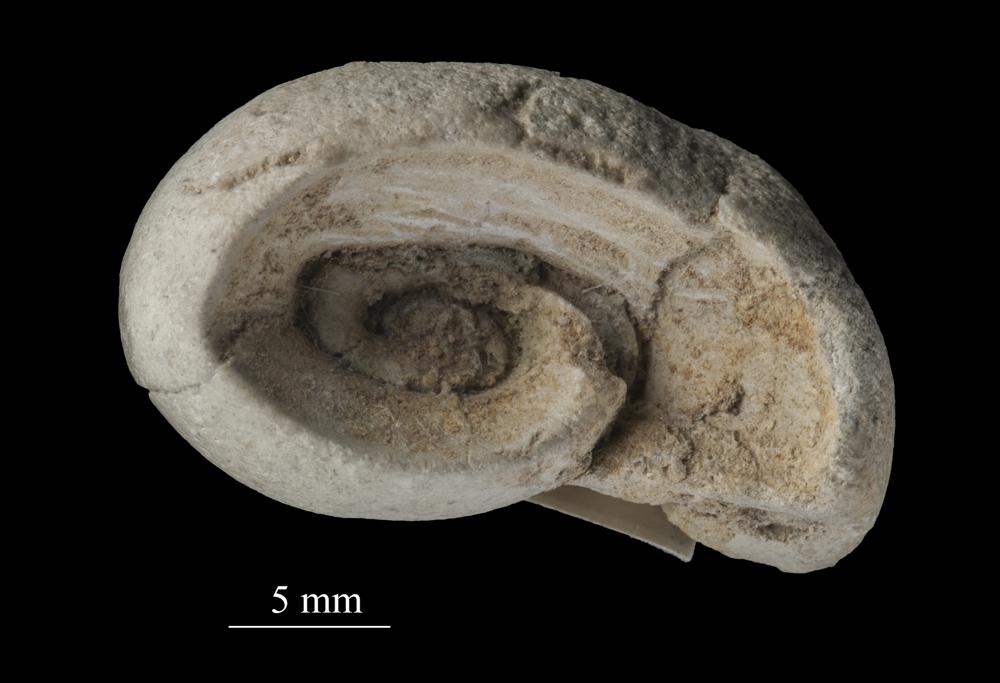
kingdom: Animalia
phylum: Mollusca
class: Gastropoda
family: Euomphalidae
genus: Euomphalus
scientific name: Euomphalus
